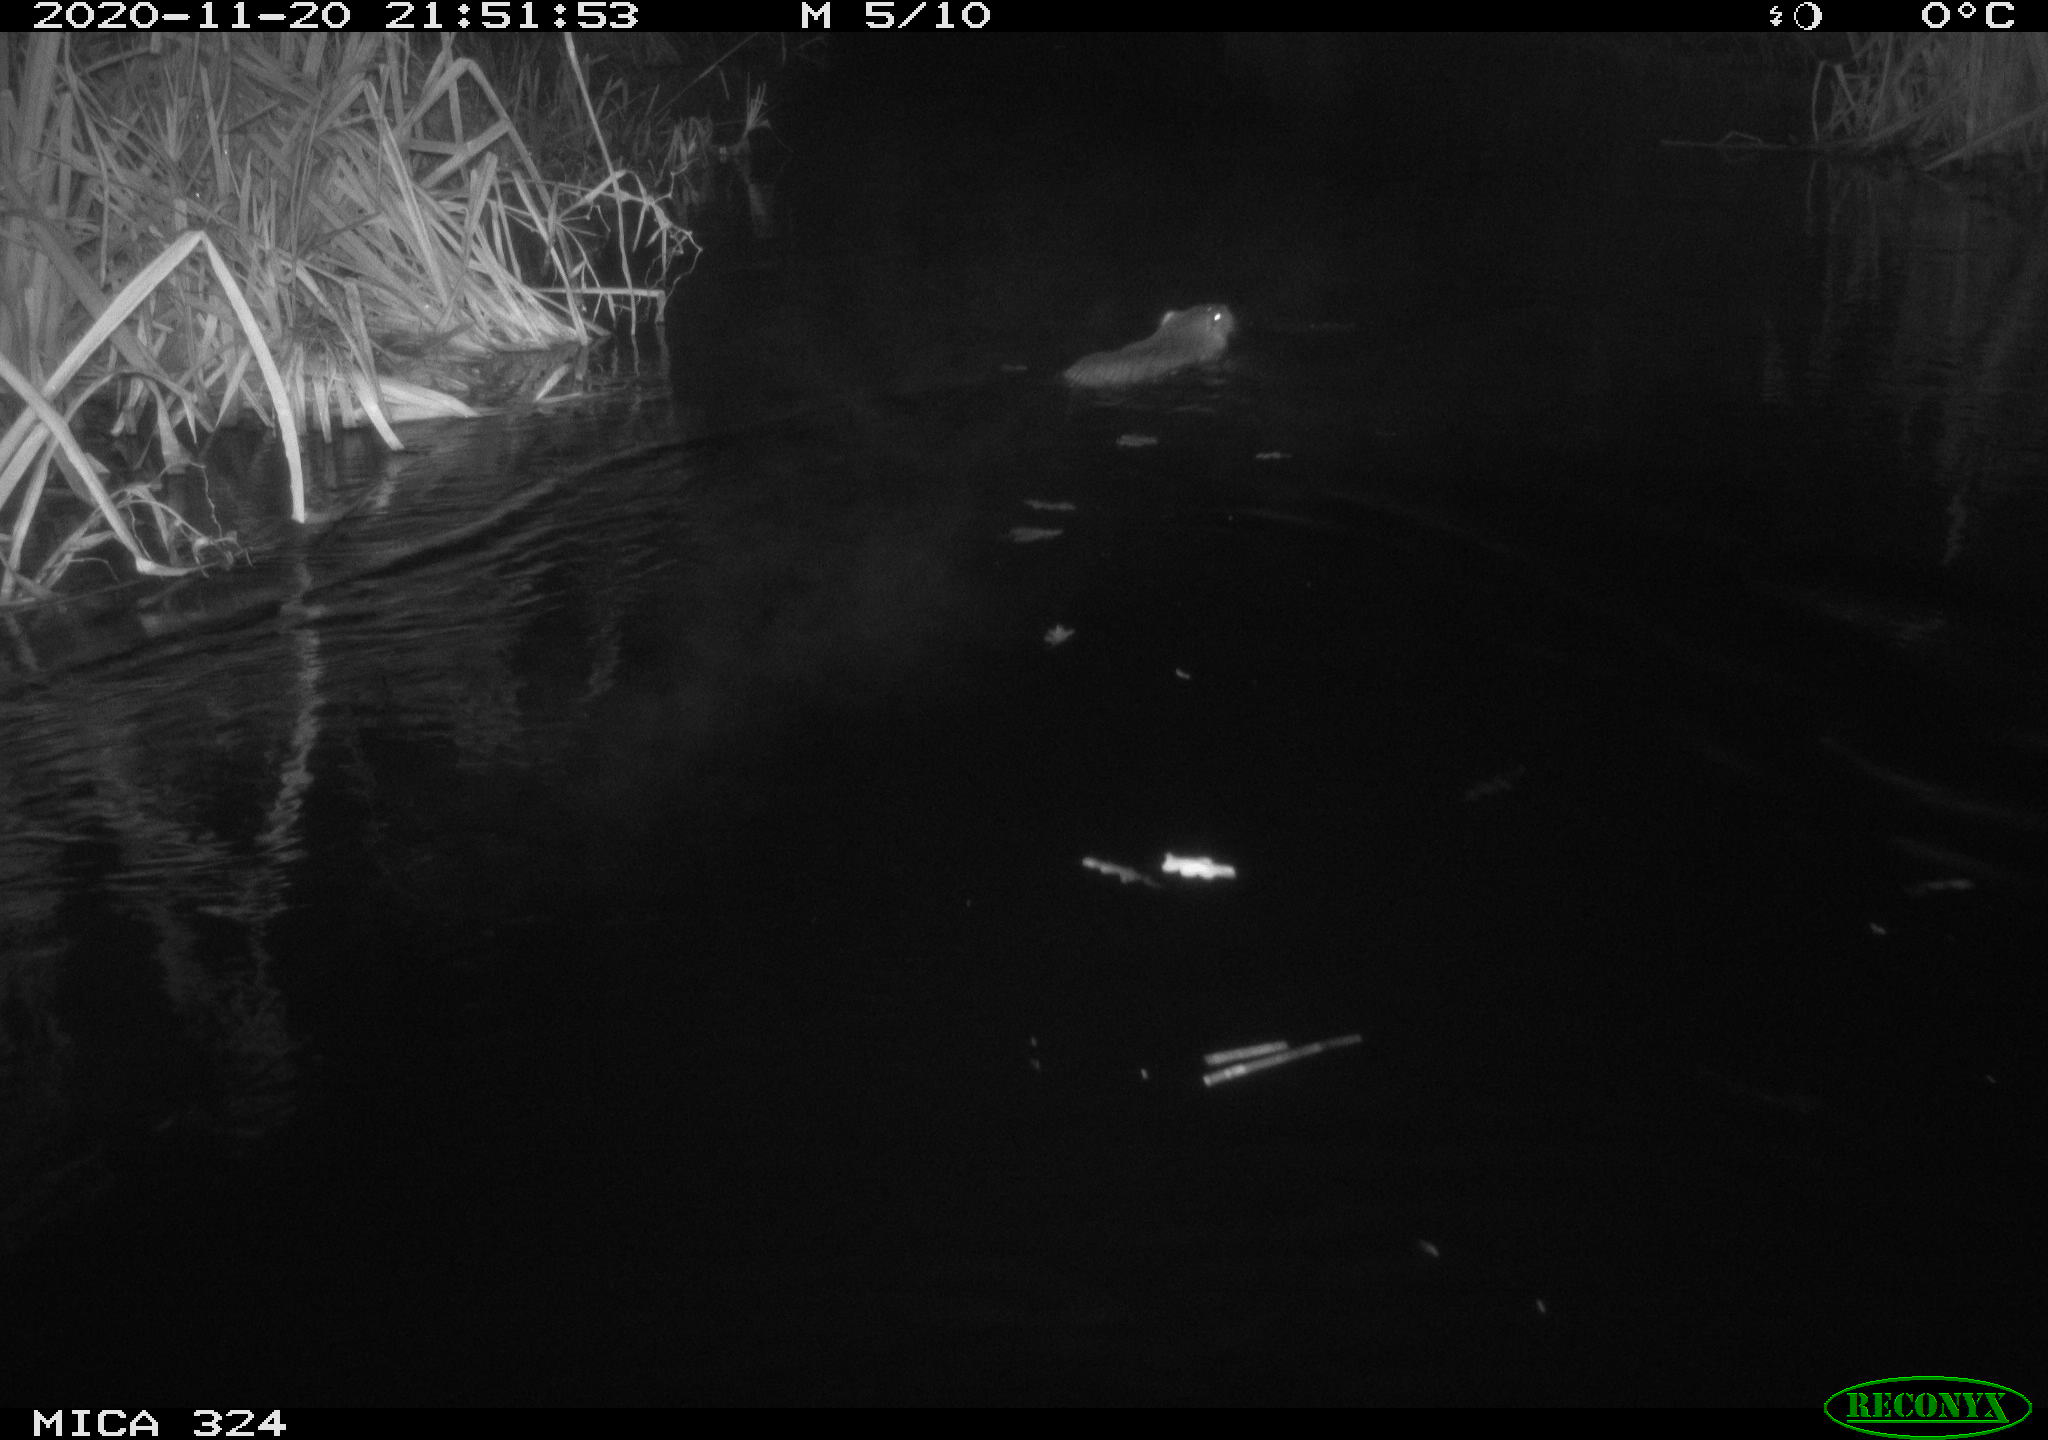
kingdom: Animalia
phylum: Chordata
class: Mammalia
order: Rodentia
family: Myocastoridae
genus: Myocastor
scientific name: Myocastor coypus
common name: Coypu
